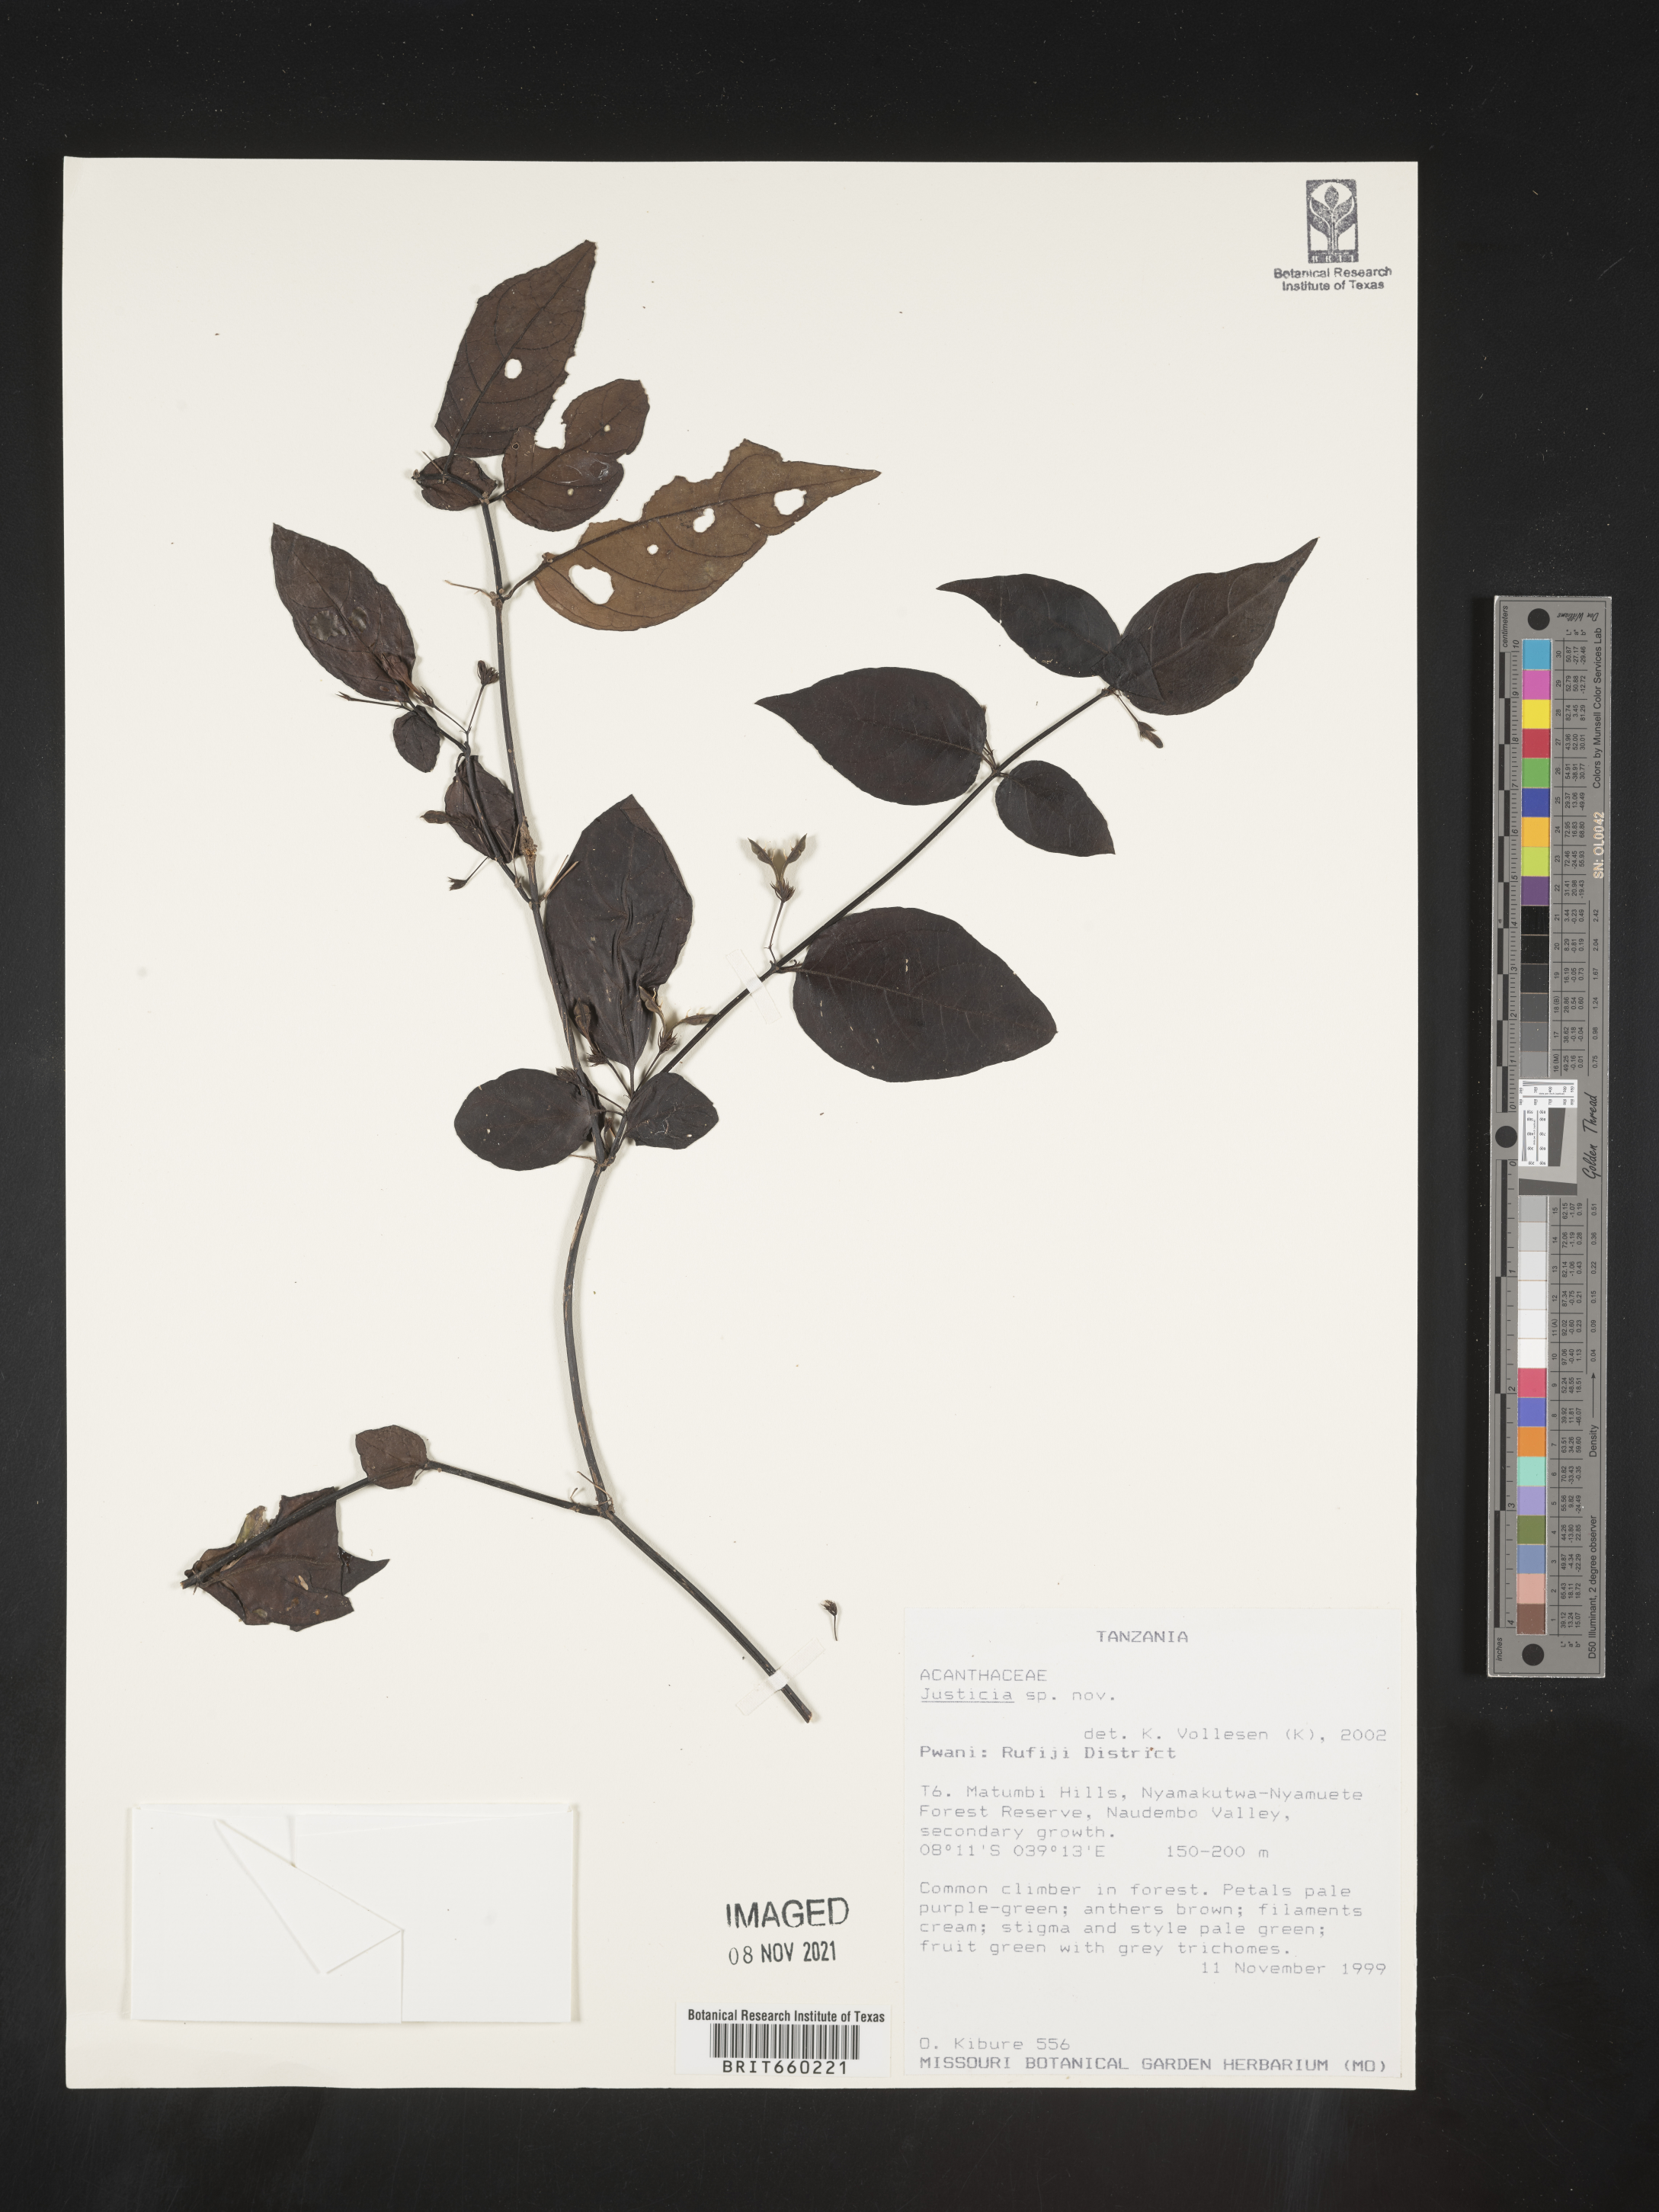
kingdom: Plantae
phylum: Tracheophyta
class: Magnoliopsida
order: Lamiales
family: Acanthaceae
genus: Justicia
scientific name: Justicia
